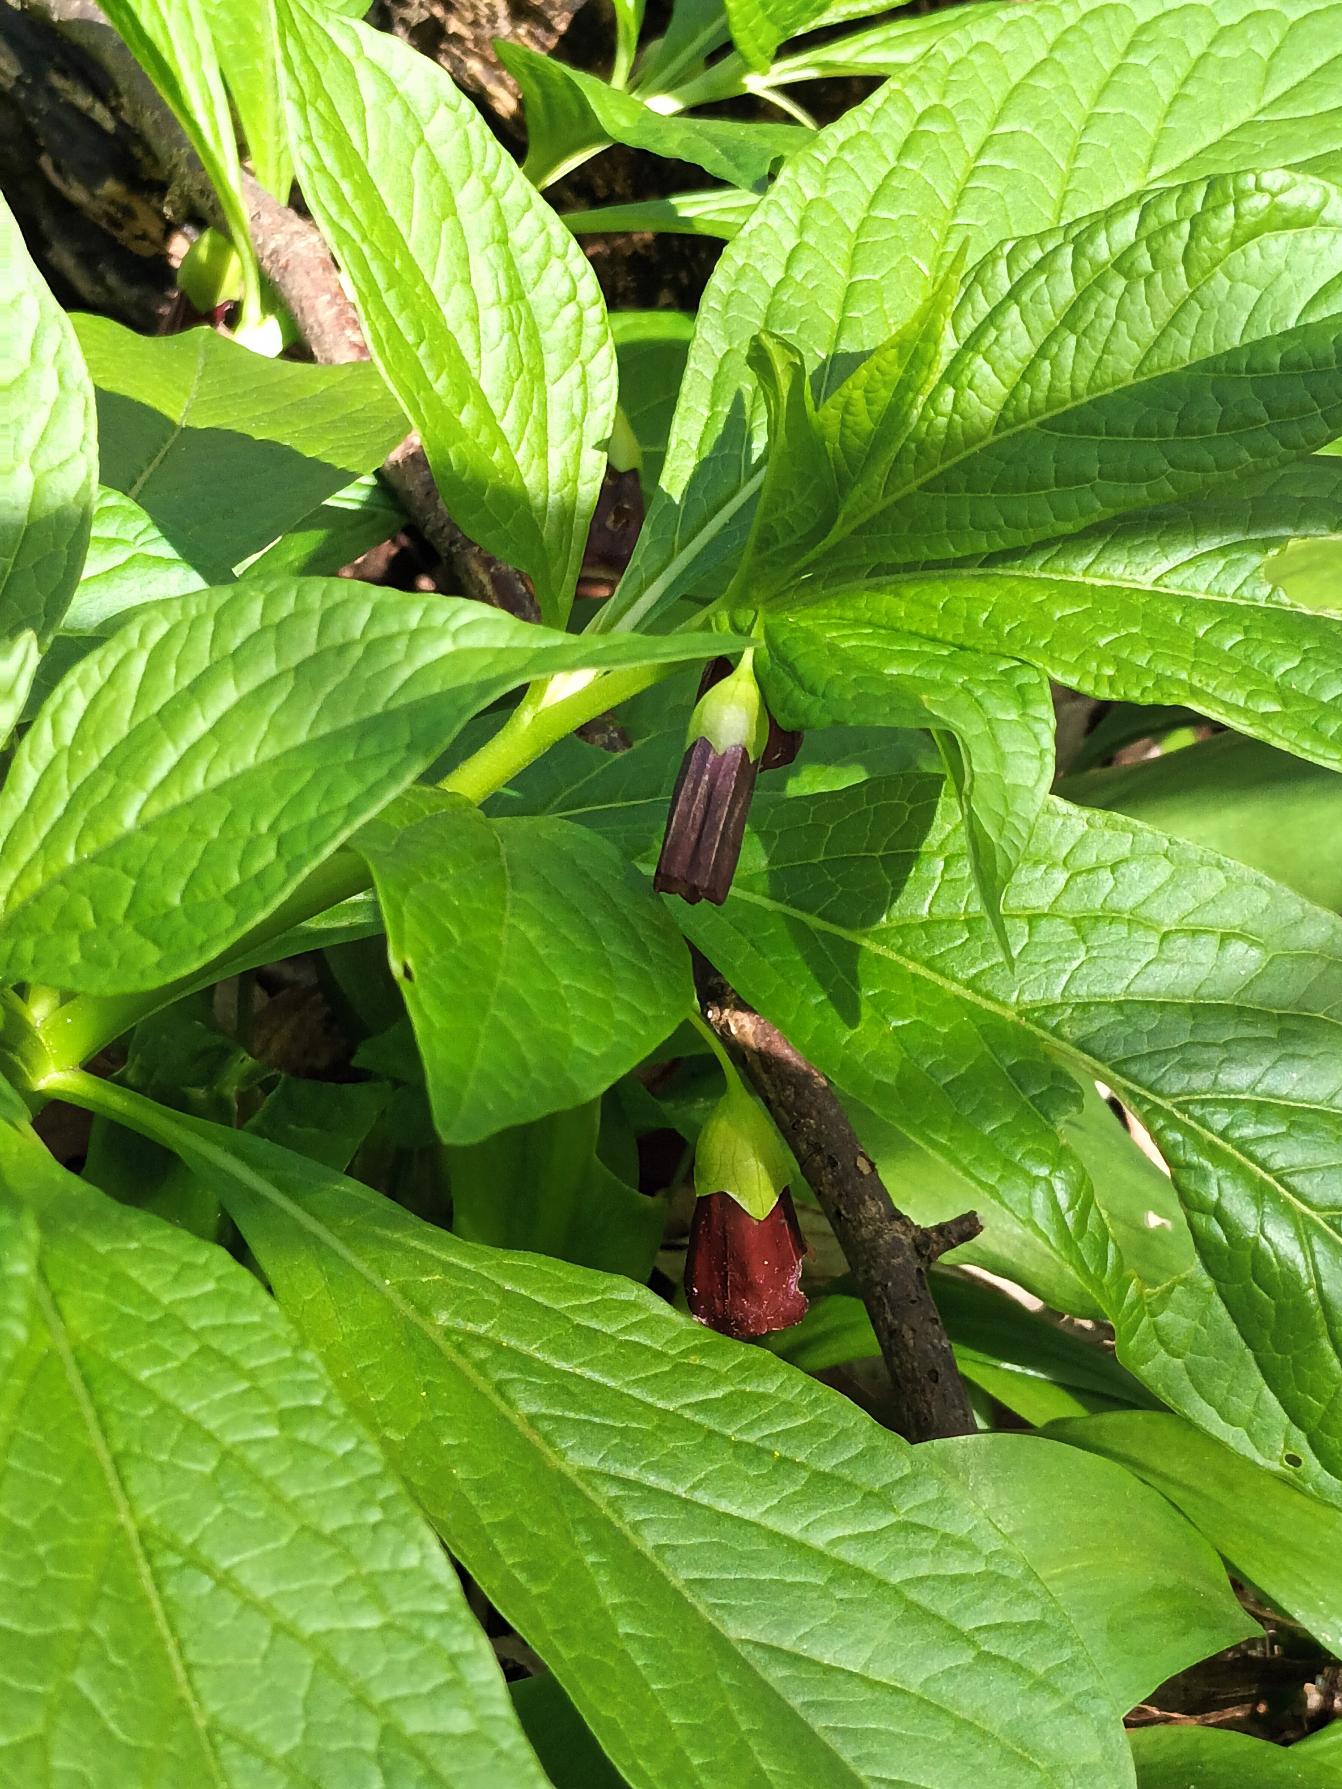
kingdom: Plantae
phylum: Tracheophyta
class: Magnoliopsida
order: Solanales
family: Solanaceae
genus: Scopolia
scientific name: Scopolia carniolica
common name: Skopolaminurt
